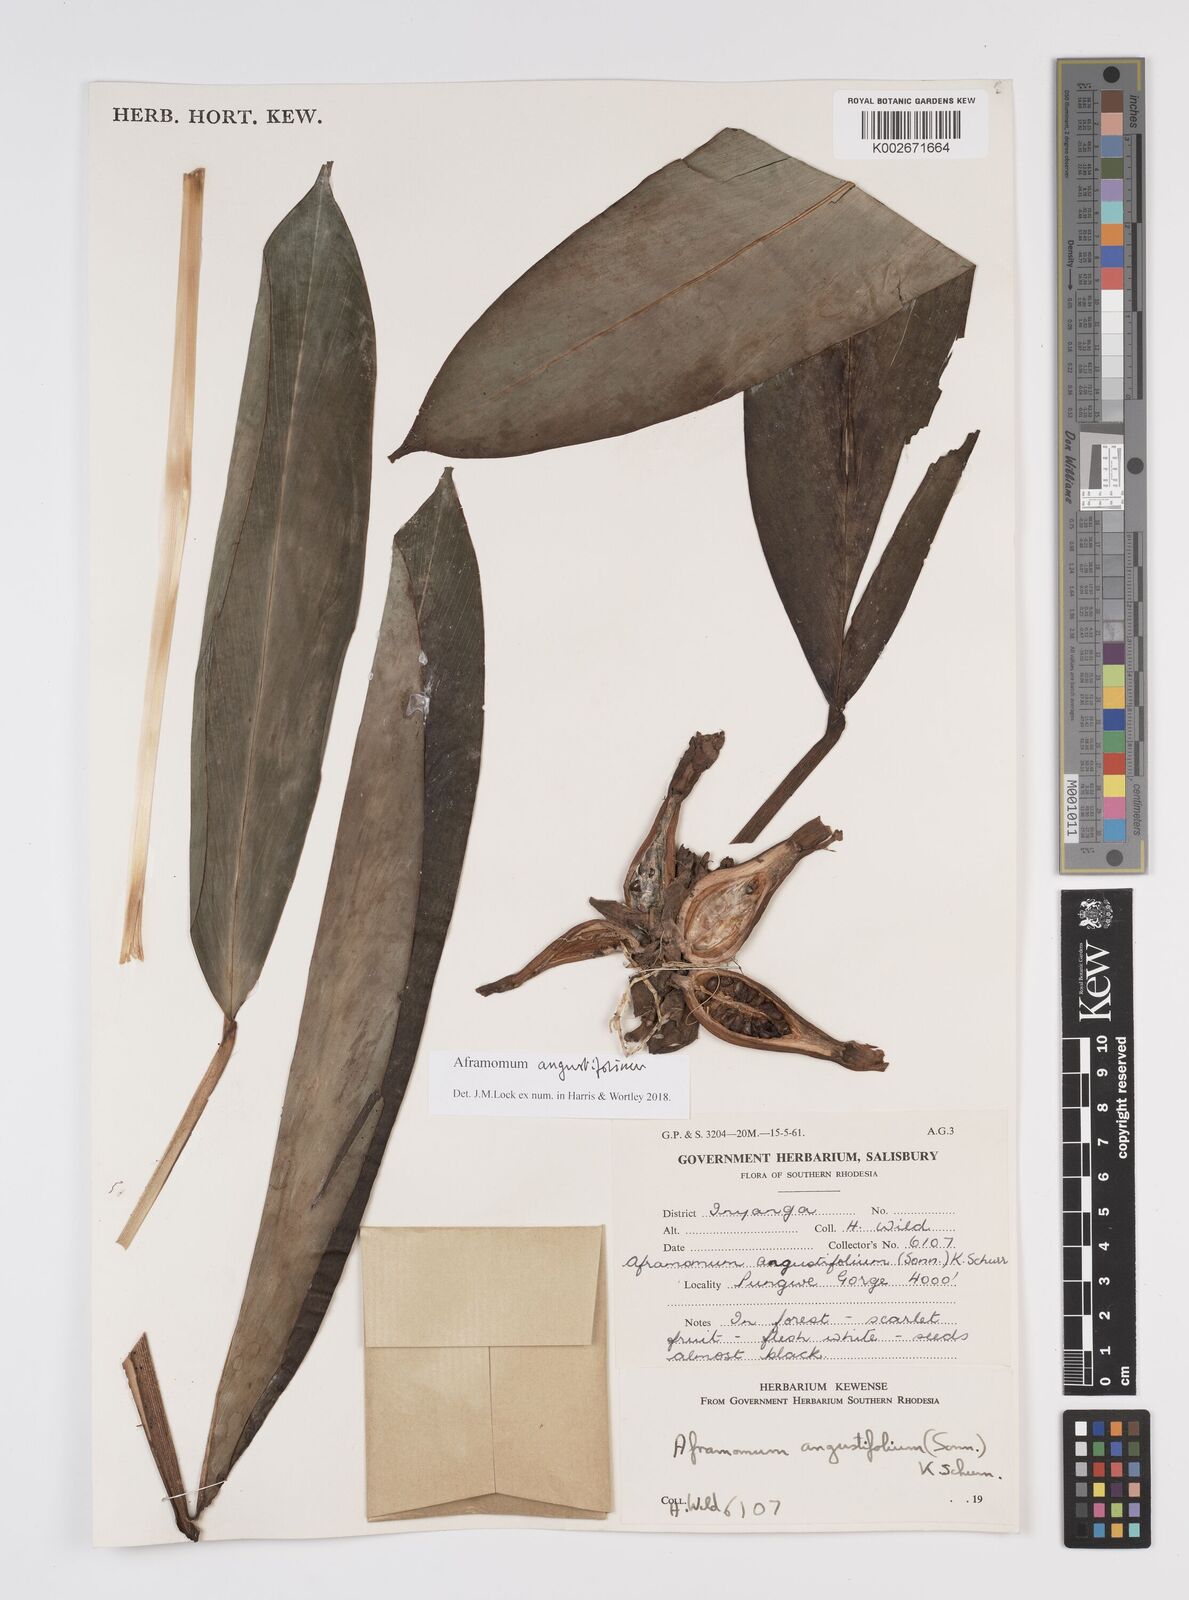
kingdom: Plantae
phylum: Tracheophyta
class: Liliopsida
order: Zingiberales
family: Zingiberaceae
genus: Aframomum
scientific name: Aframomum
